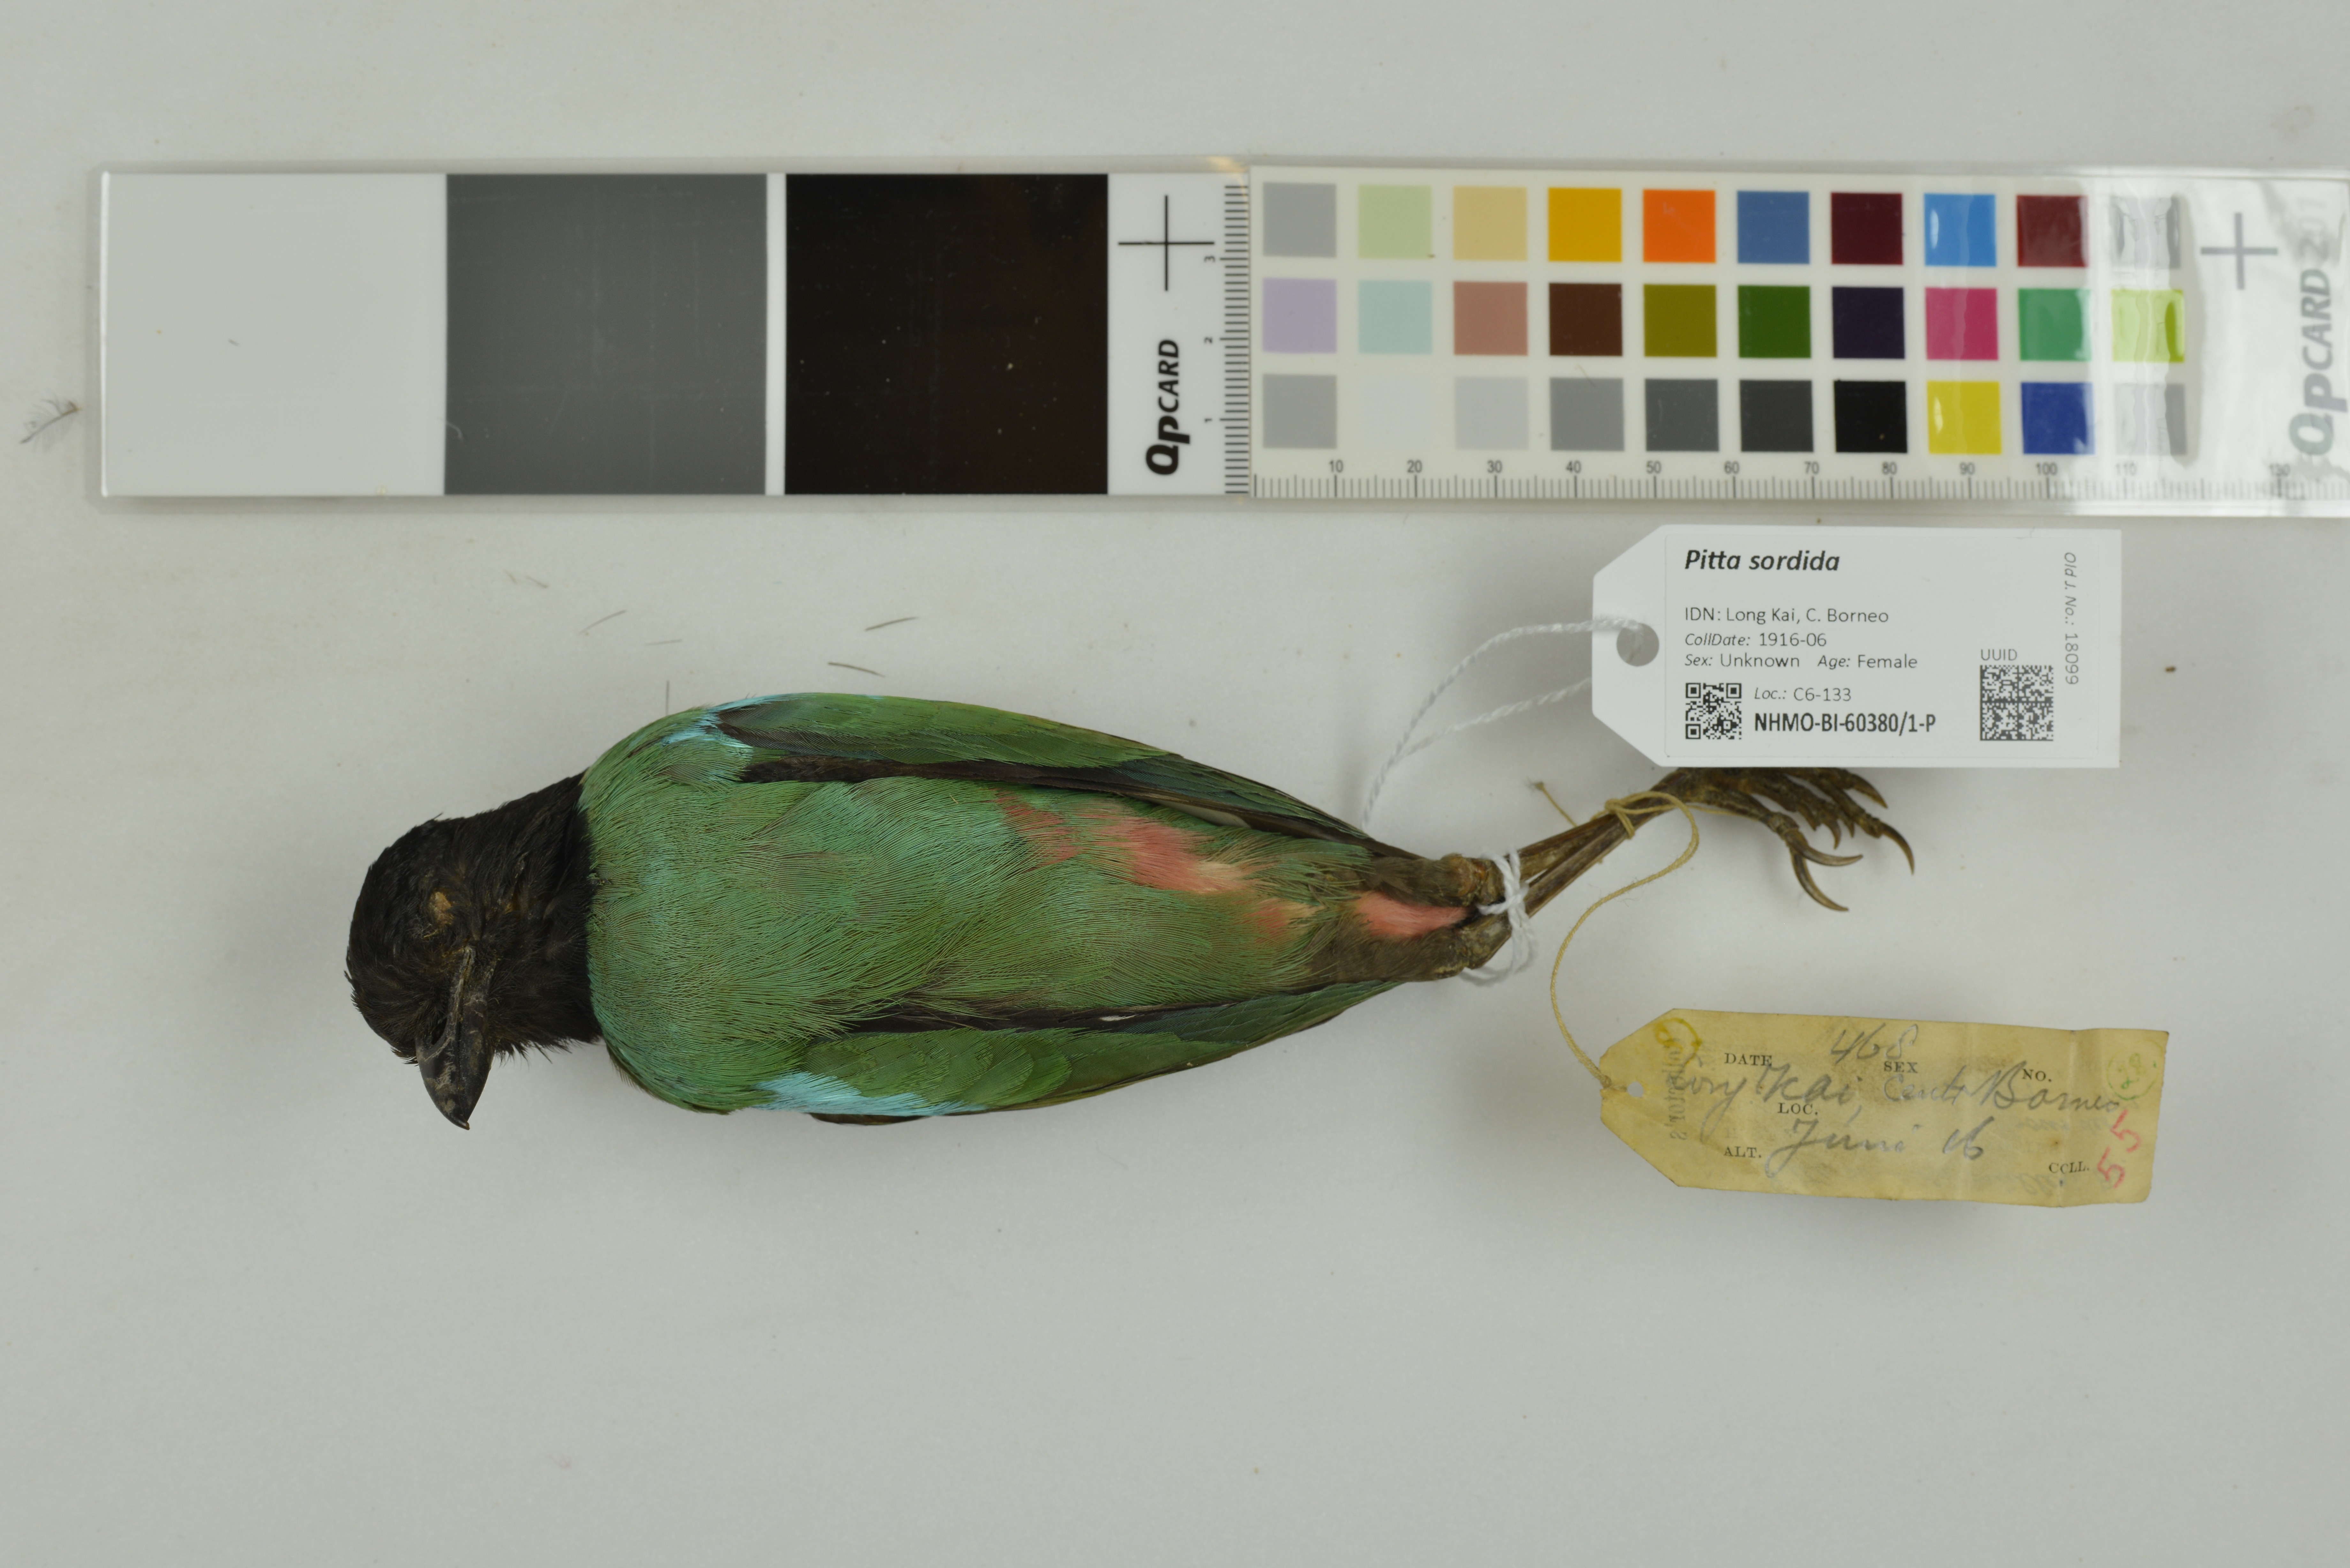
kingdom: Animalia
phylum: Chordata
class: Aves
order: Passeriformes
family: Pittidae
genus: Pitta
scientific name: Pitta sordida
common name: Hooded pitta
